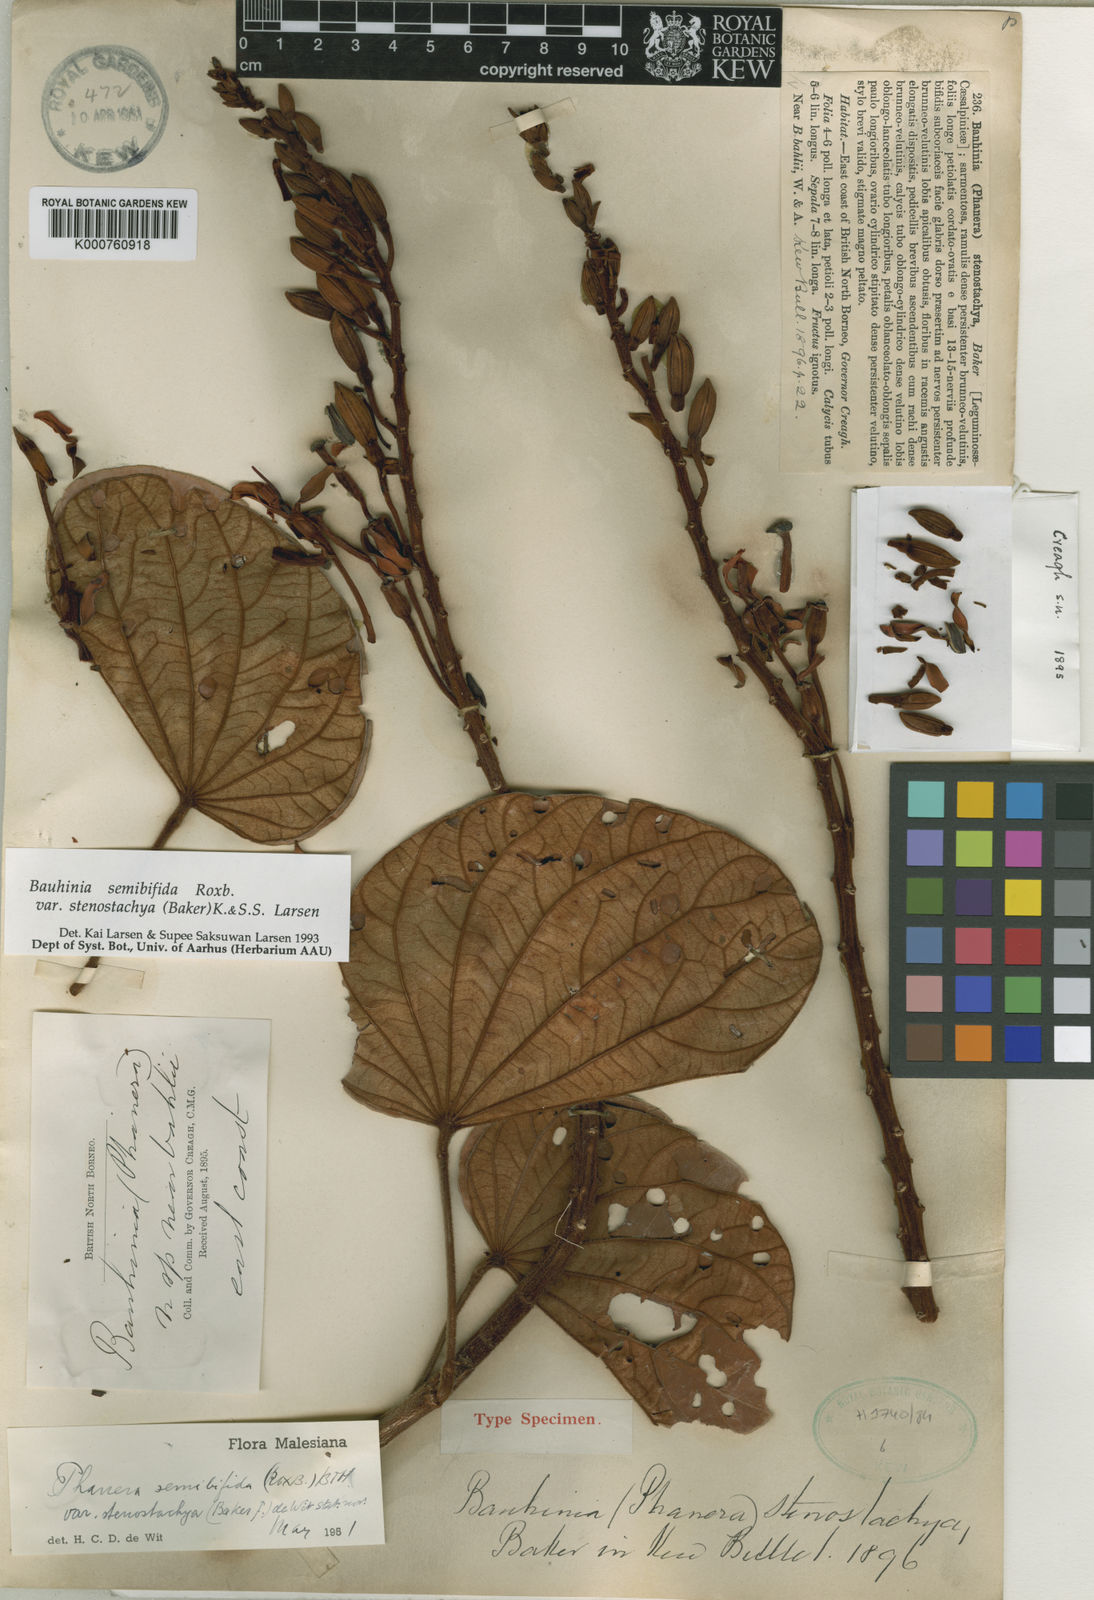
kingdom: Plantae
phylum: Tracheophyta
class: Magnoliopsida
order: Fabales
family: Fabaceae
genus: Phanera
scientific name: Phanera semibifida
